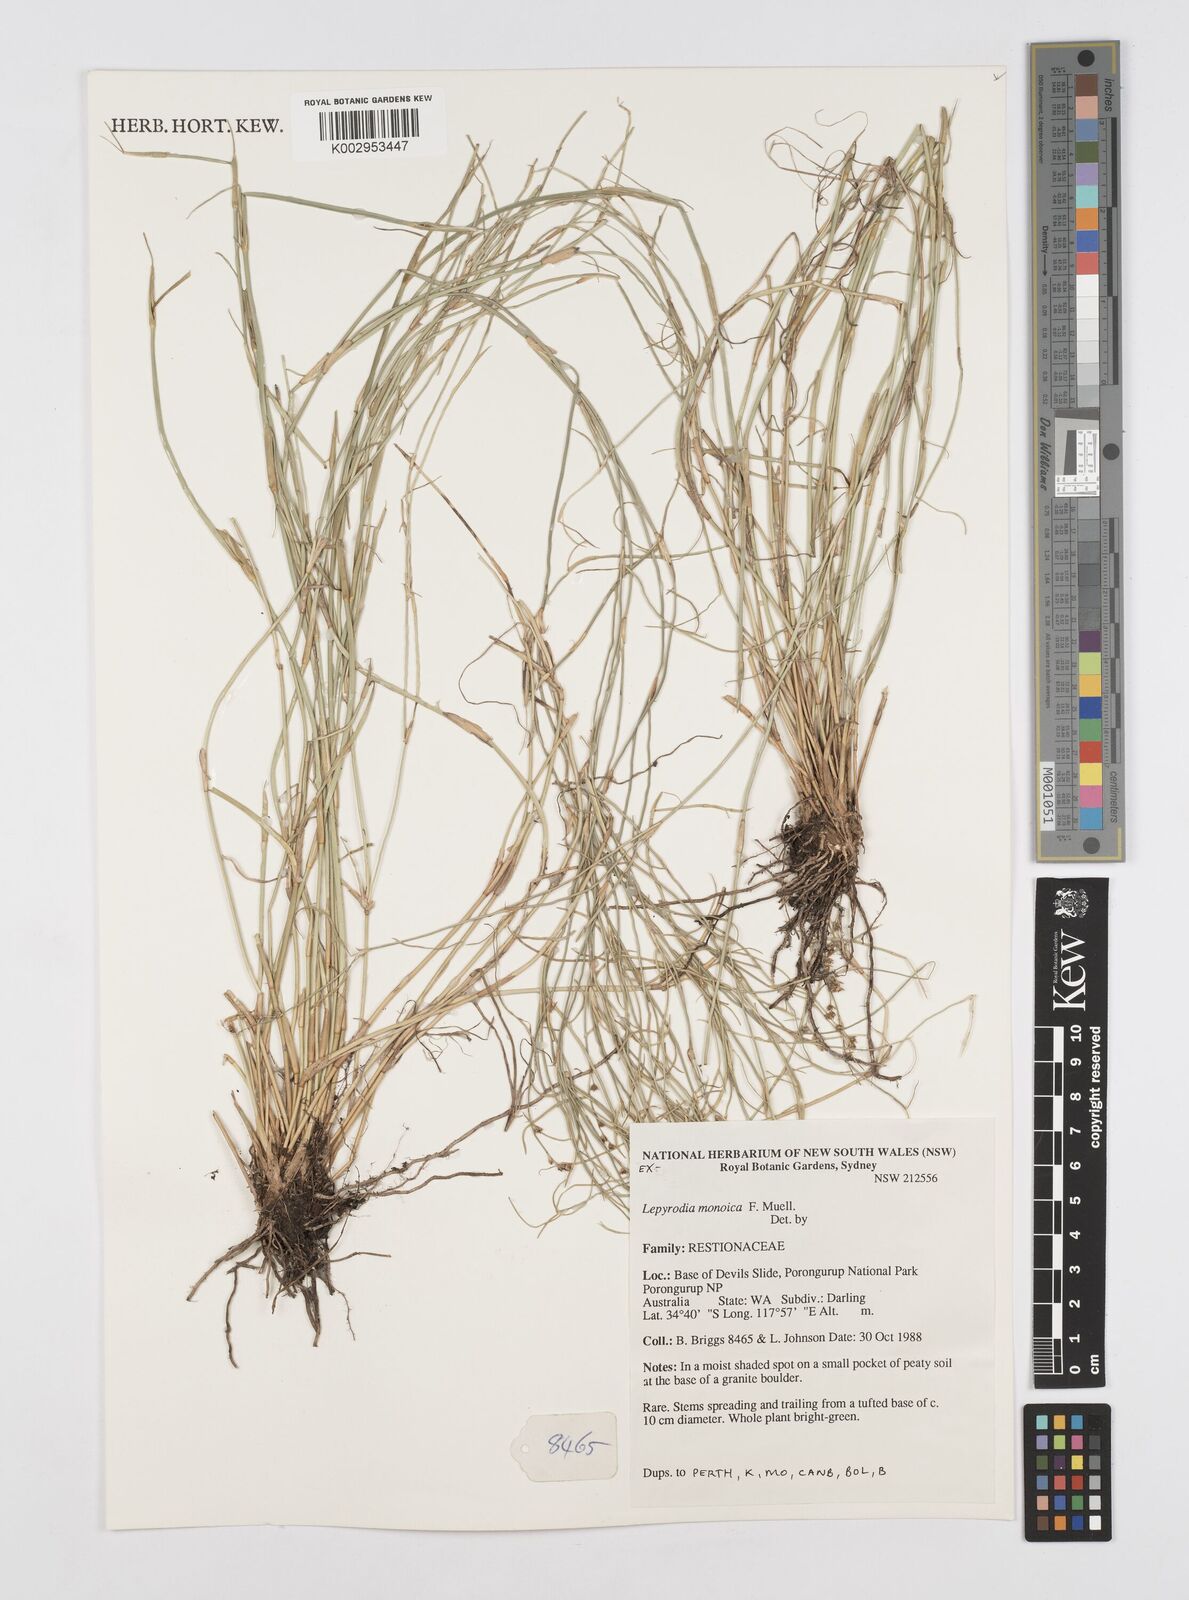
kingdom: Plantae
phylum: Tracheophyta
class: Liliopsida
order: Poales
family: Restionaceae
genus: Lepyrodia
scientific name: Lepyrodia monoica
